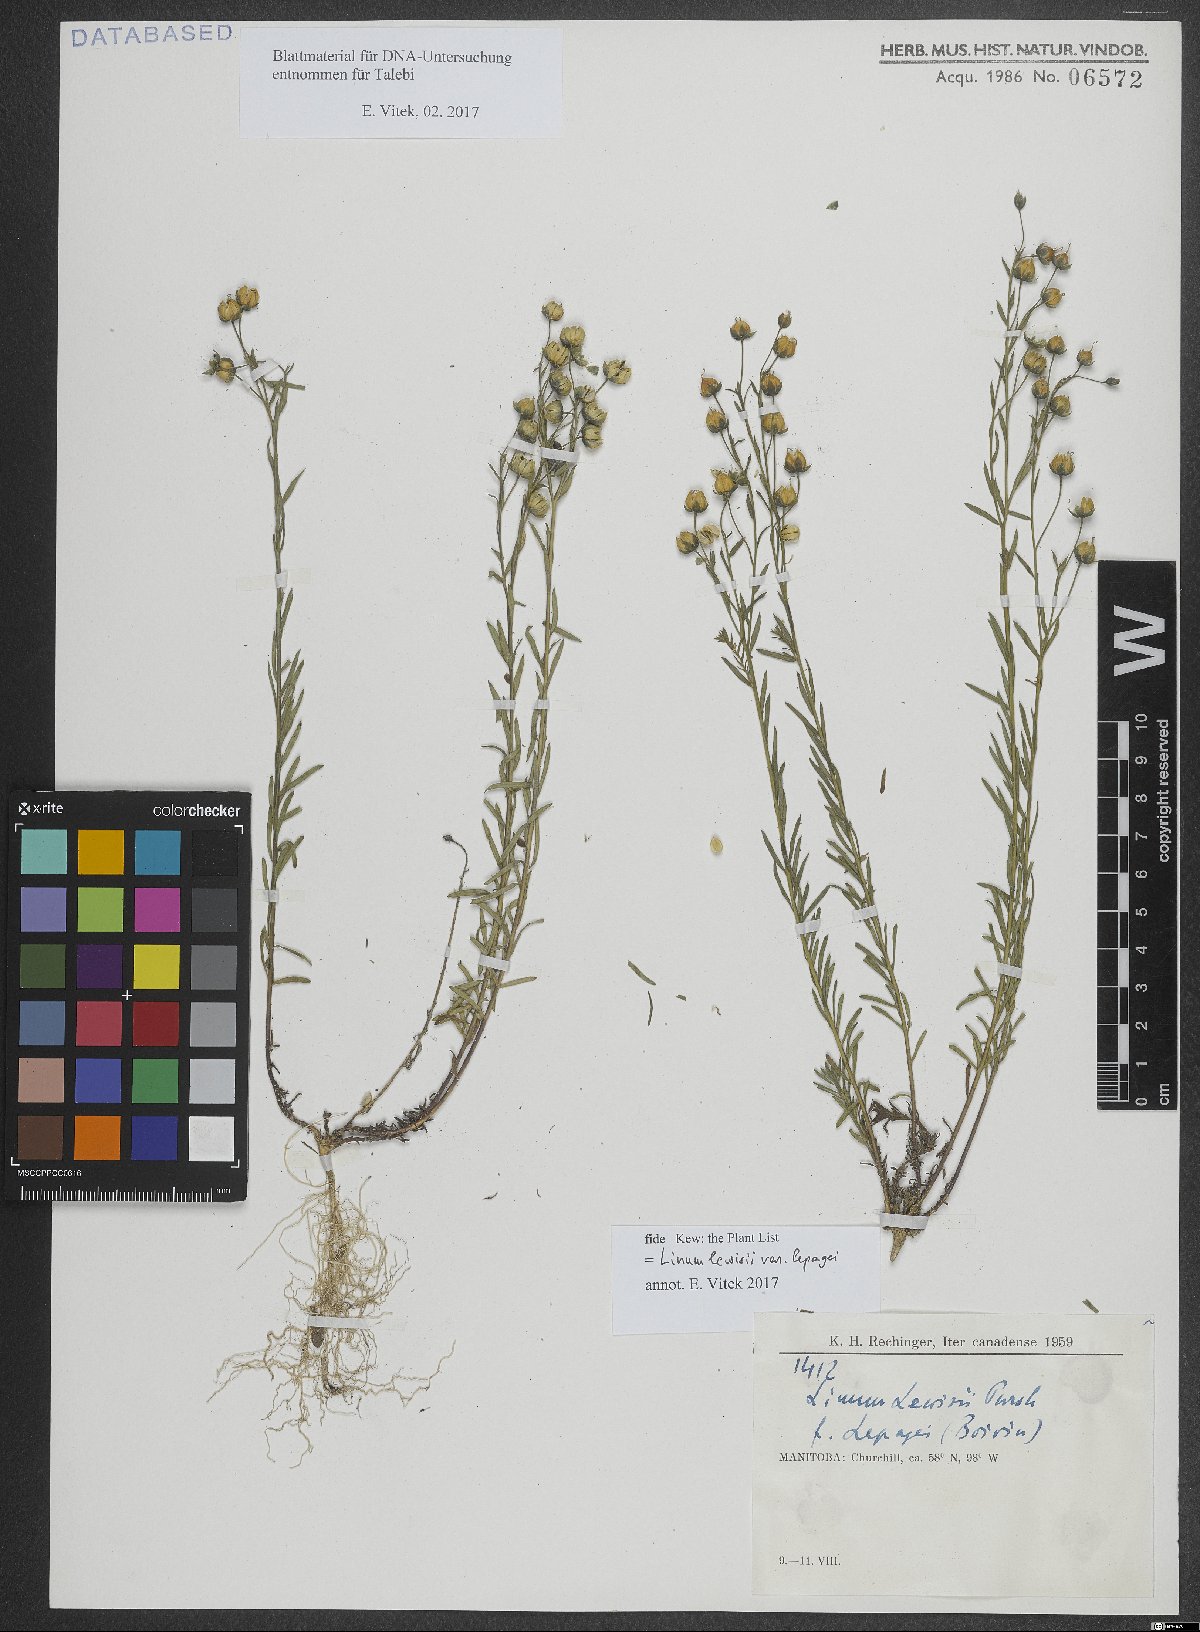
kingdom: Plantae
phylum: Tracheophyta
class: Magnoliopsida
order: Malpighiales
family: Linaceae
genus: Linum
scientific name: Linum lewisii
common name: Prairie flax
